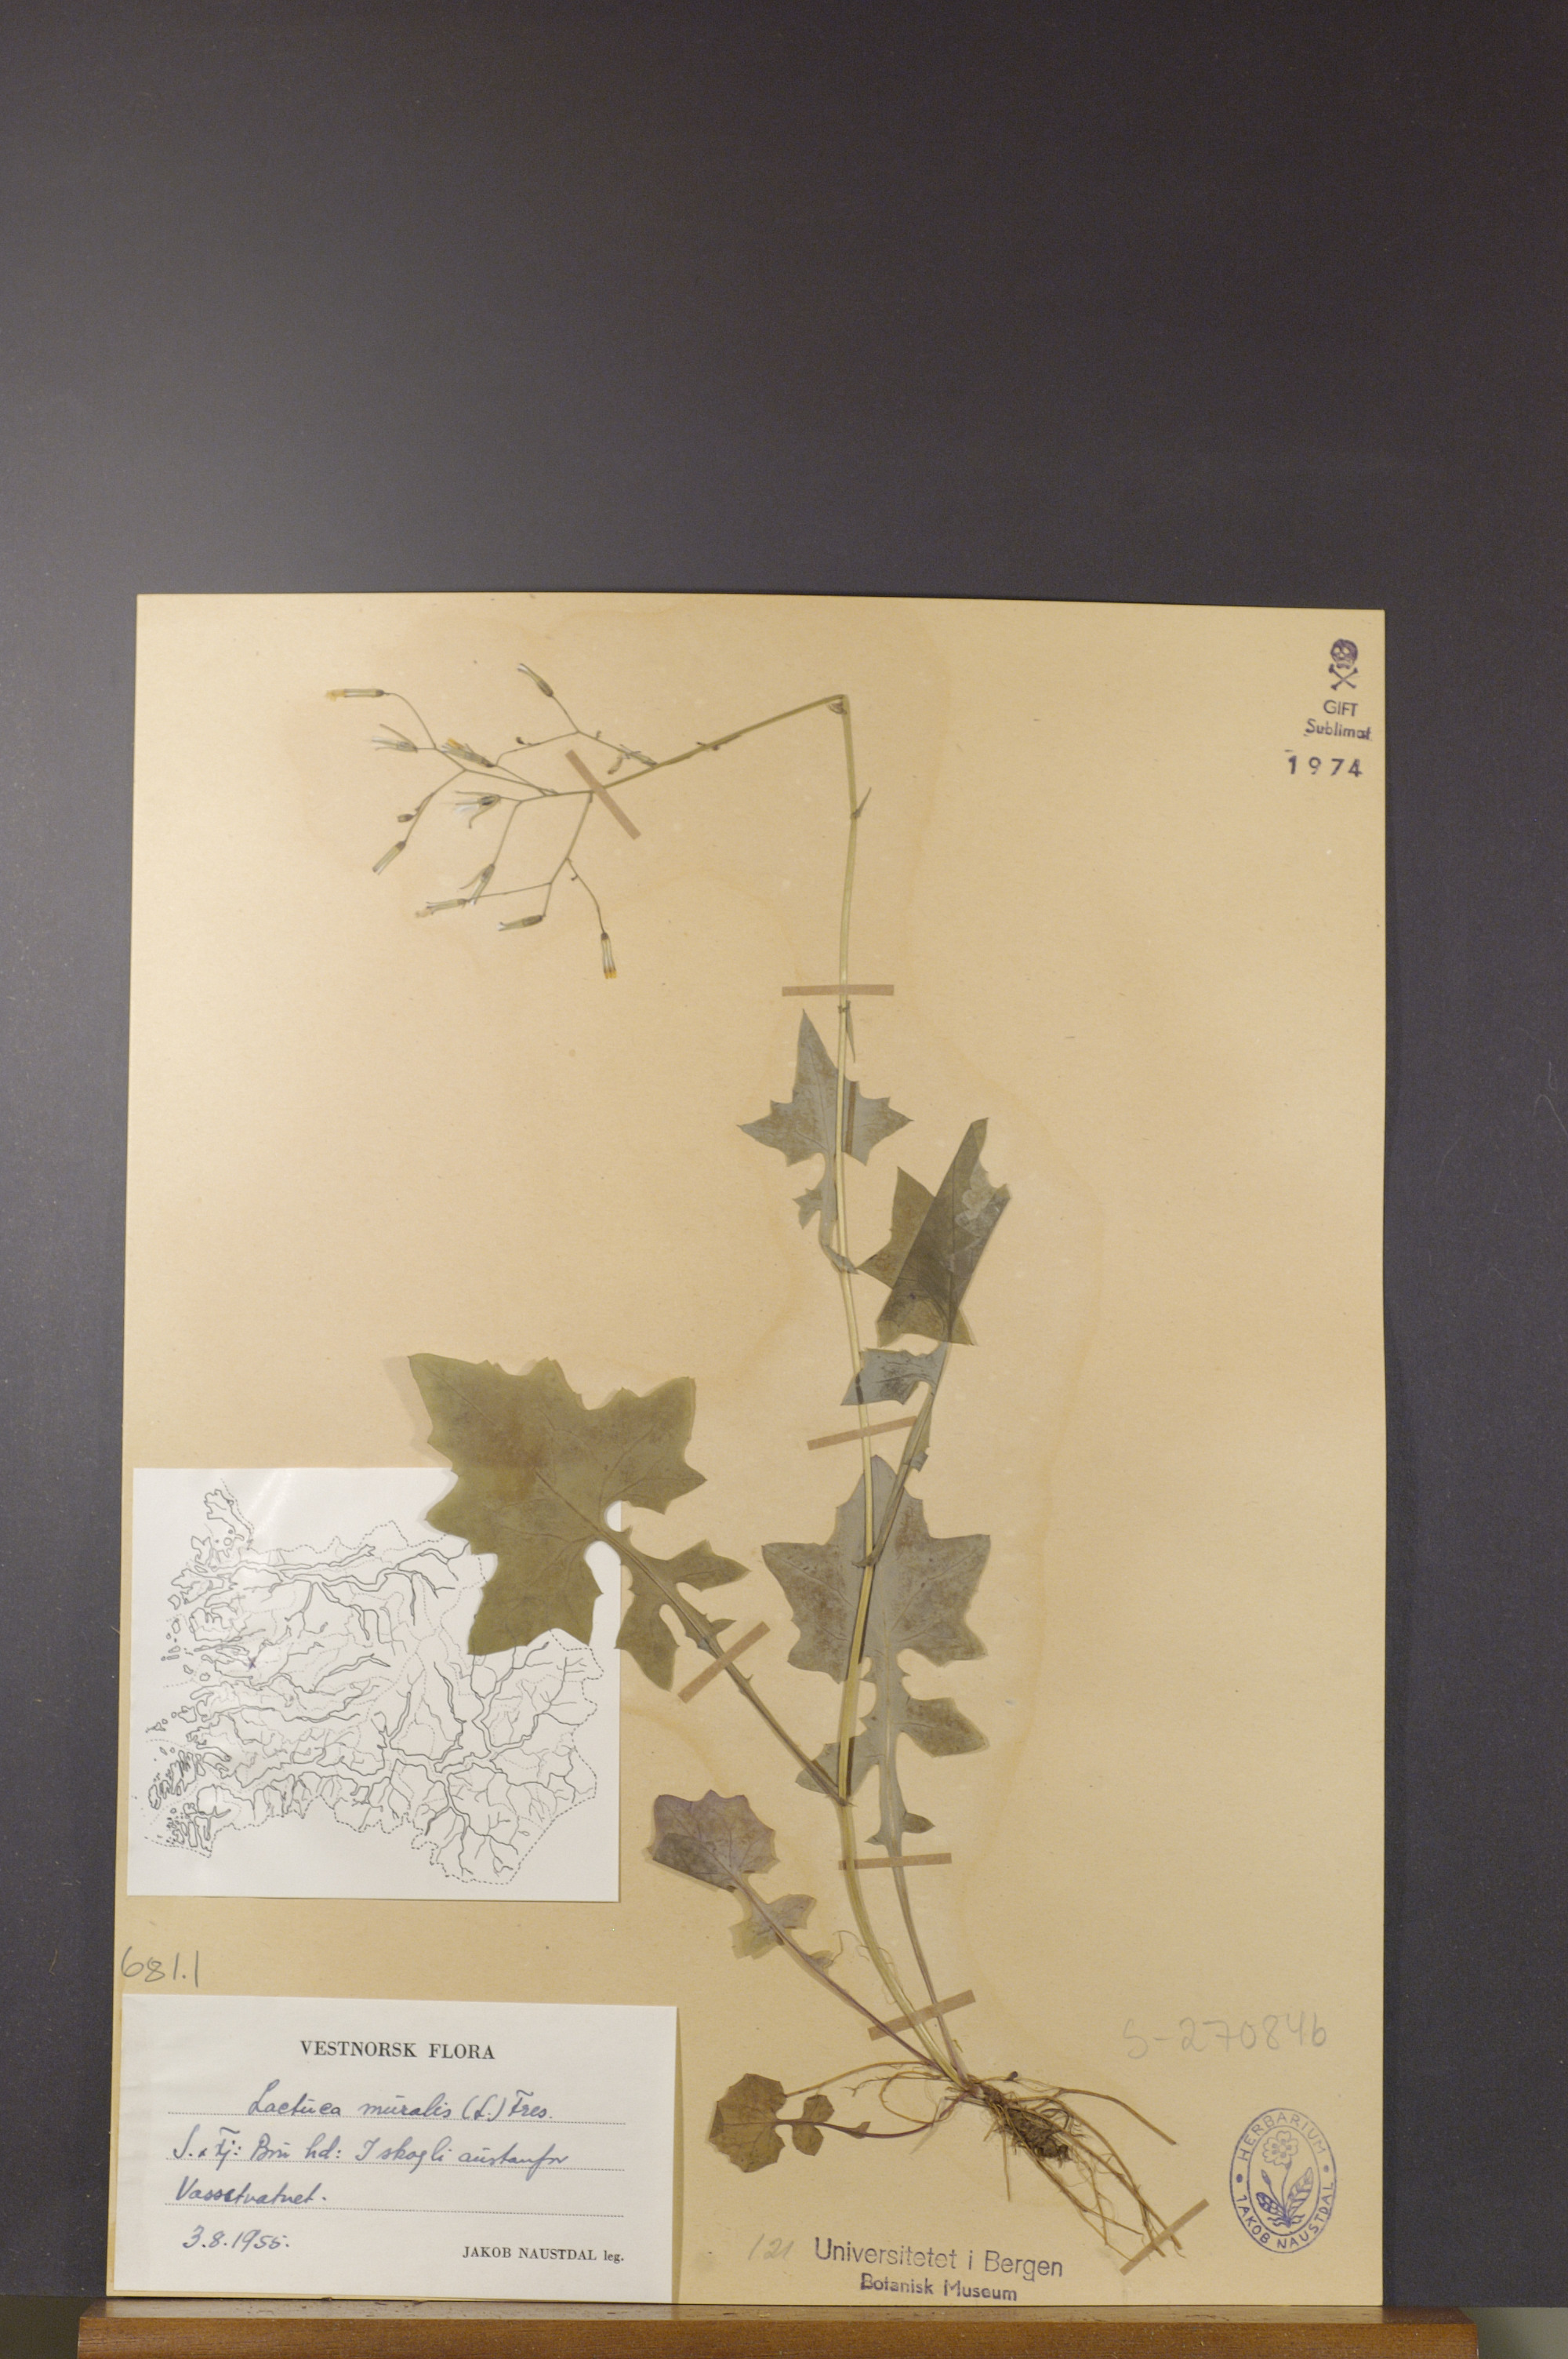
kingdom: Plantae
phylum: Tracheophyta
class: Magnoliopsida
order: Asterales
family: Asteraceae
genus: Mycelis
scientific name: Mycelis muralis
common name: Wall lettuce
